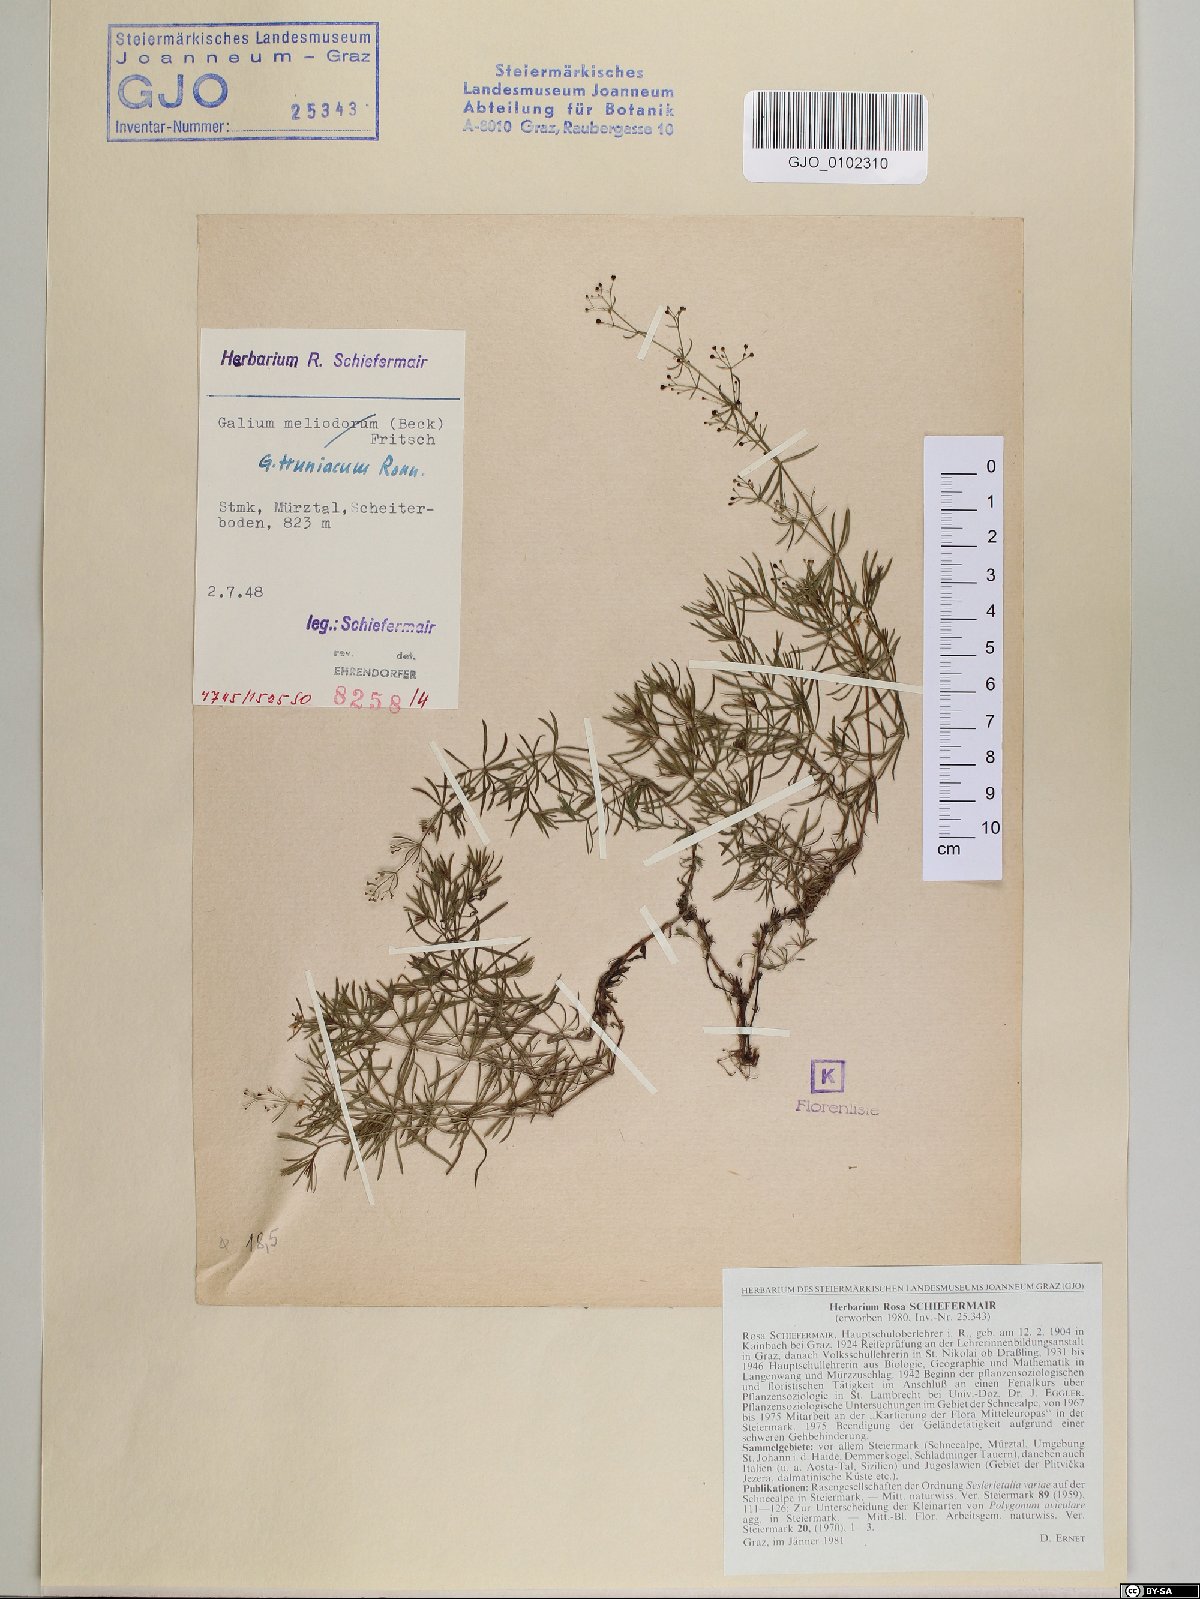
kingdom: Plantae
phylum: Tracheophyta
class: Magnoliopsida
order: Gentianales
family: Rubiaceae
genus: Galium
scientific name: Galium truniacum
